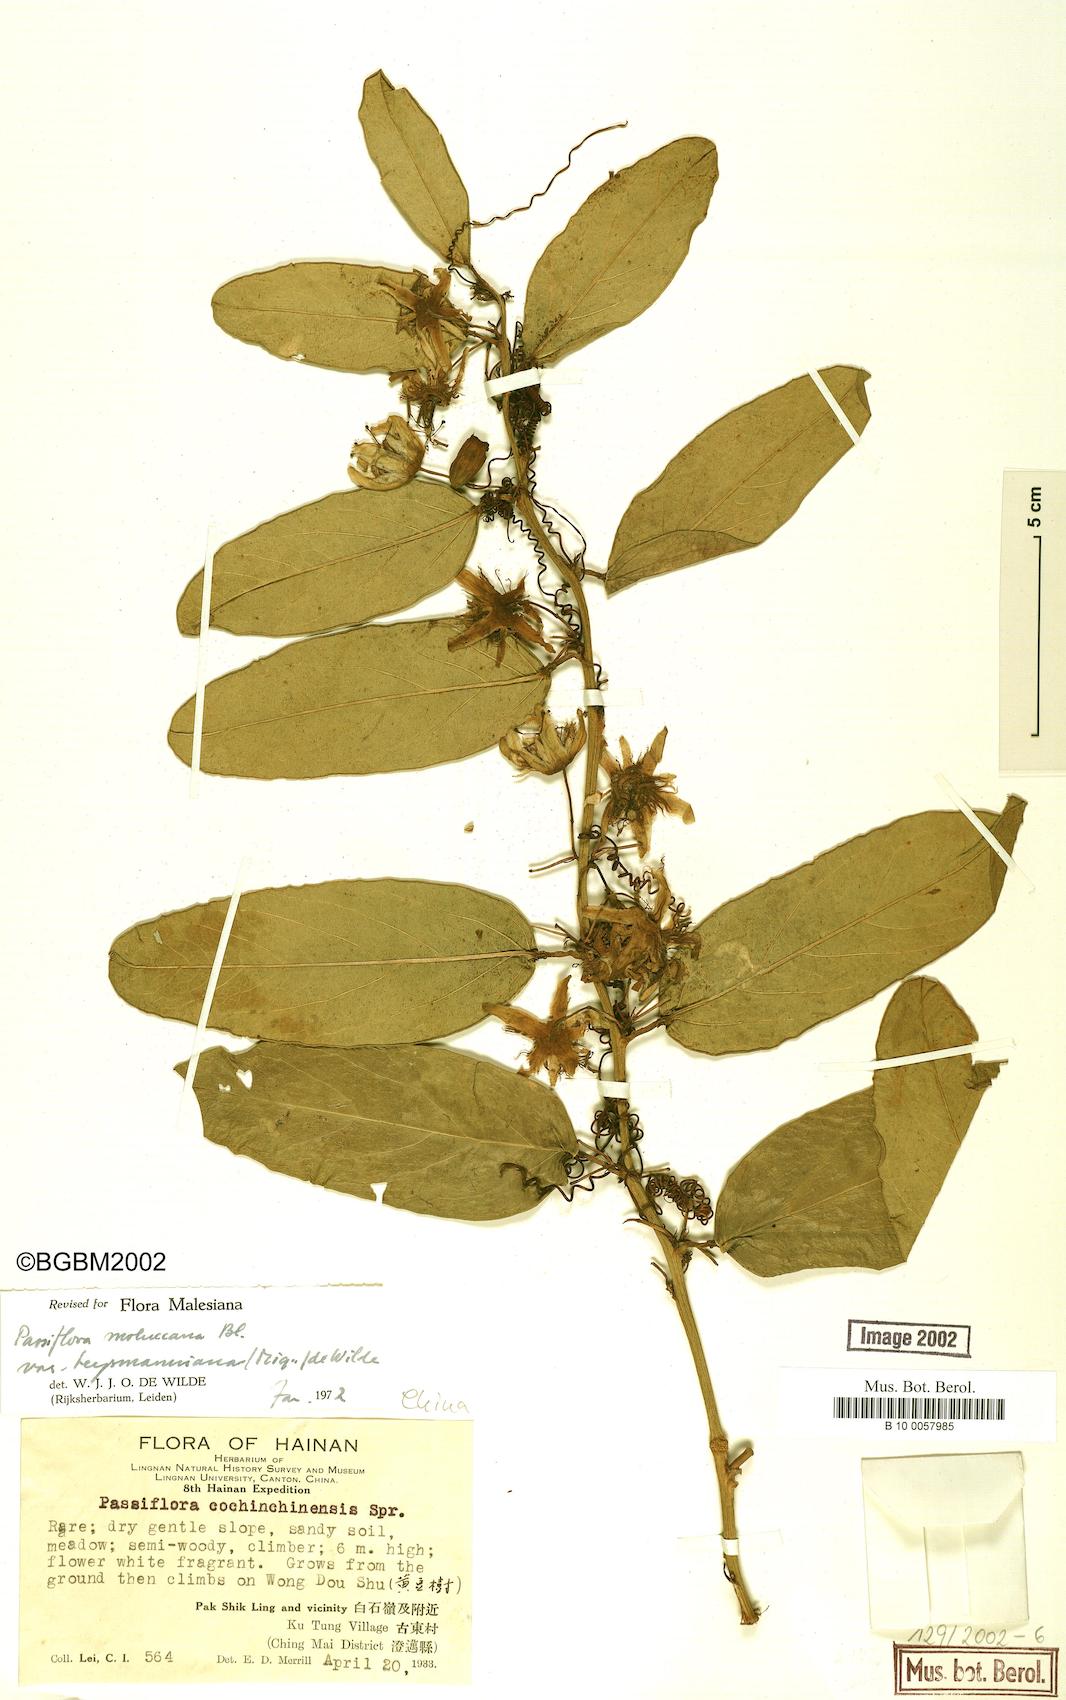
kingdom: Plantae
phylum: Tracheophyta
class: Magnoliopsida
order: Malpighiales
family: Passifloraceae
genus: Passiflora
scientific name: Passiflora moluccana
